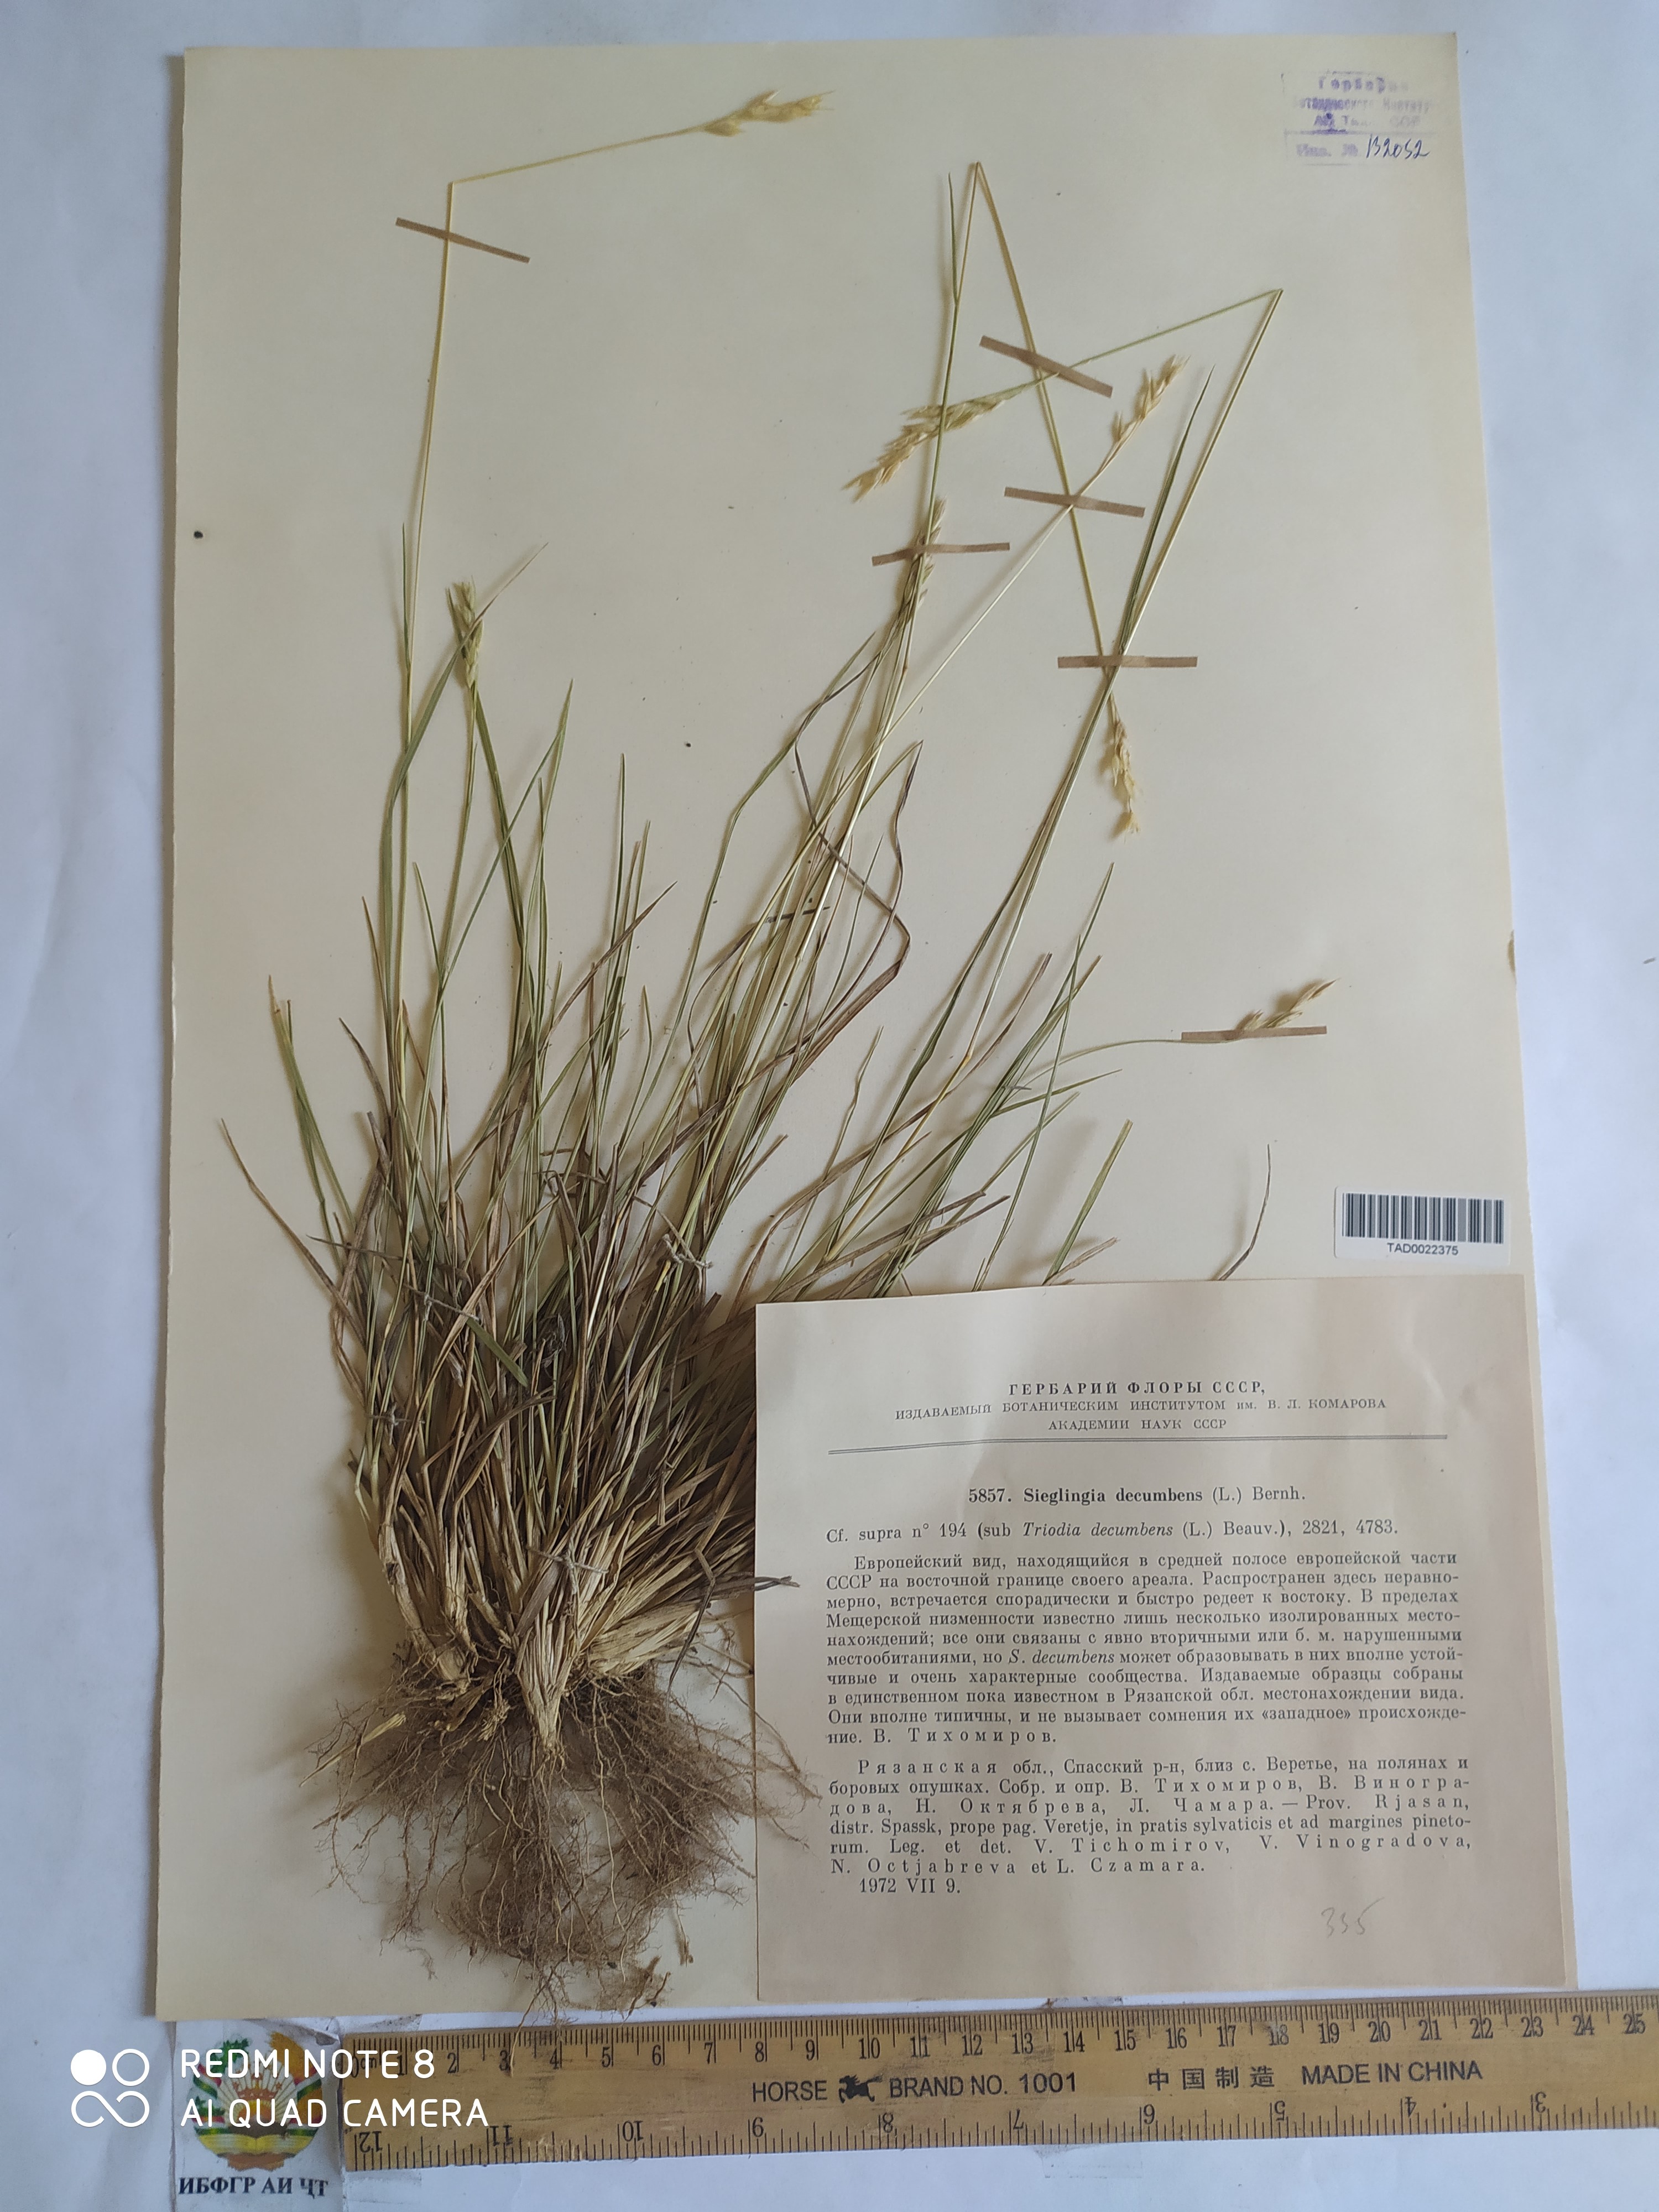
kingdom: Plantae
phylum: Tracheophyta
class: Liliopsida
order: Poales
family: Poaceae
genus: Danthonia
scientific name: Danthonia decumbens
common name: Common heathgrass
